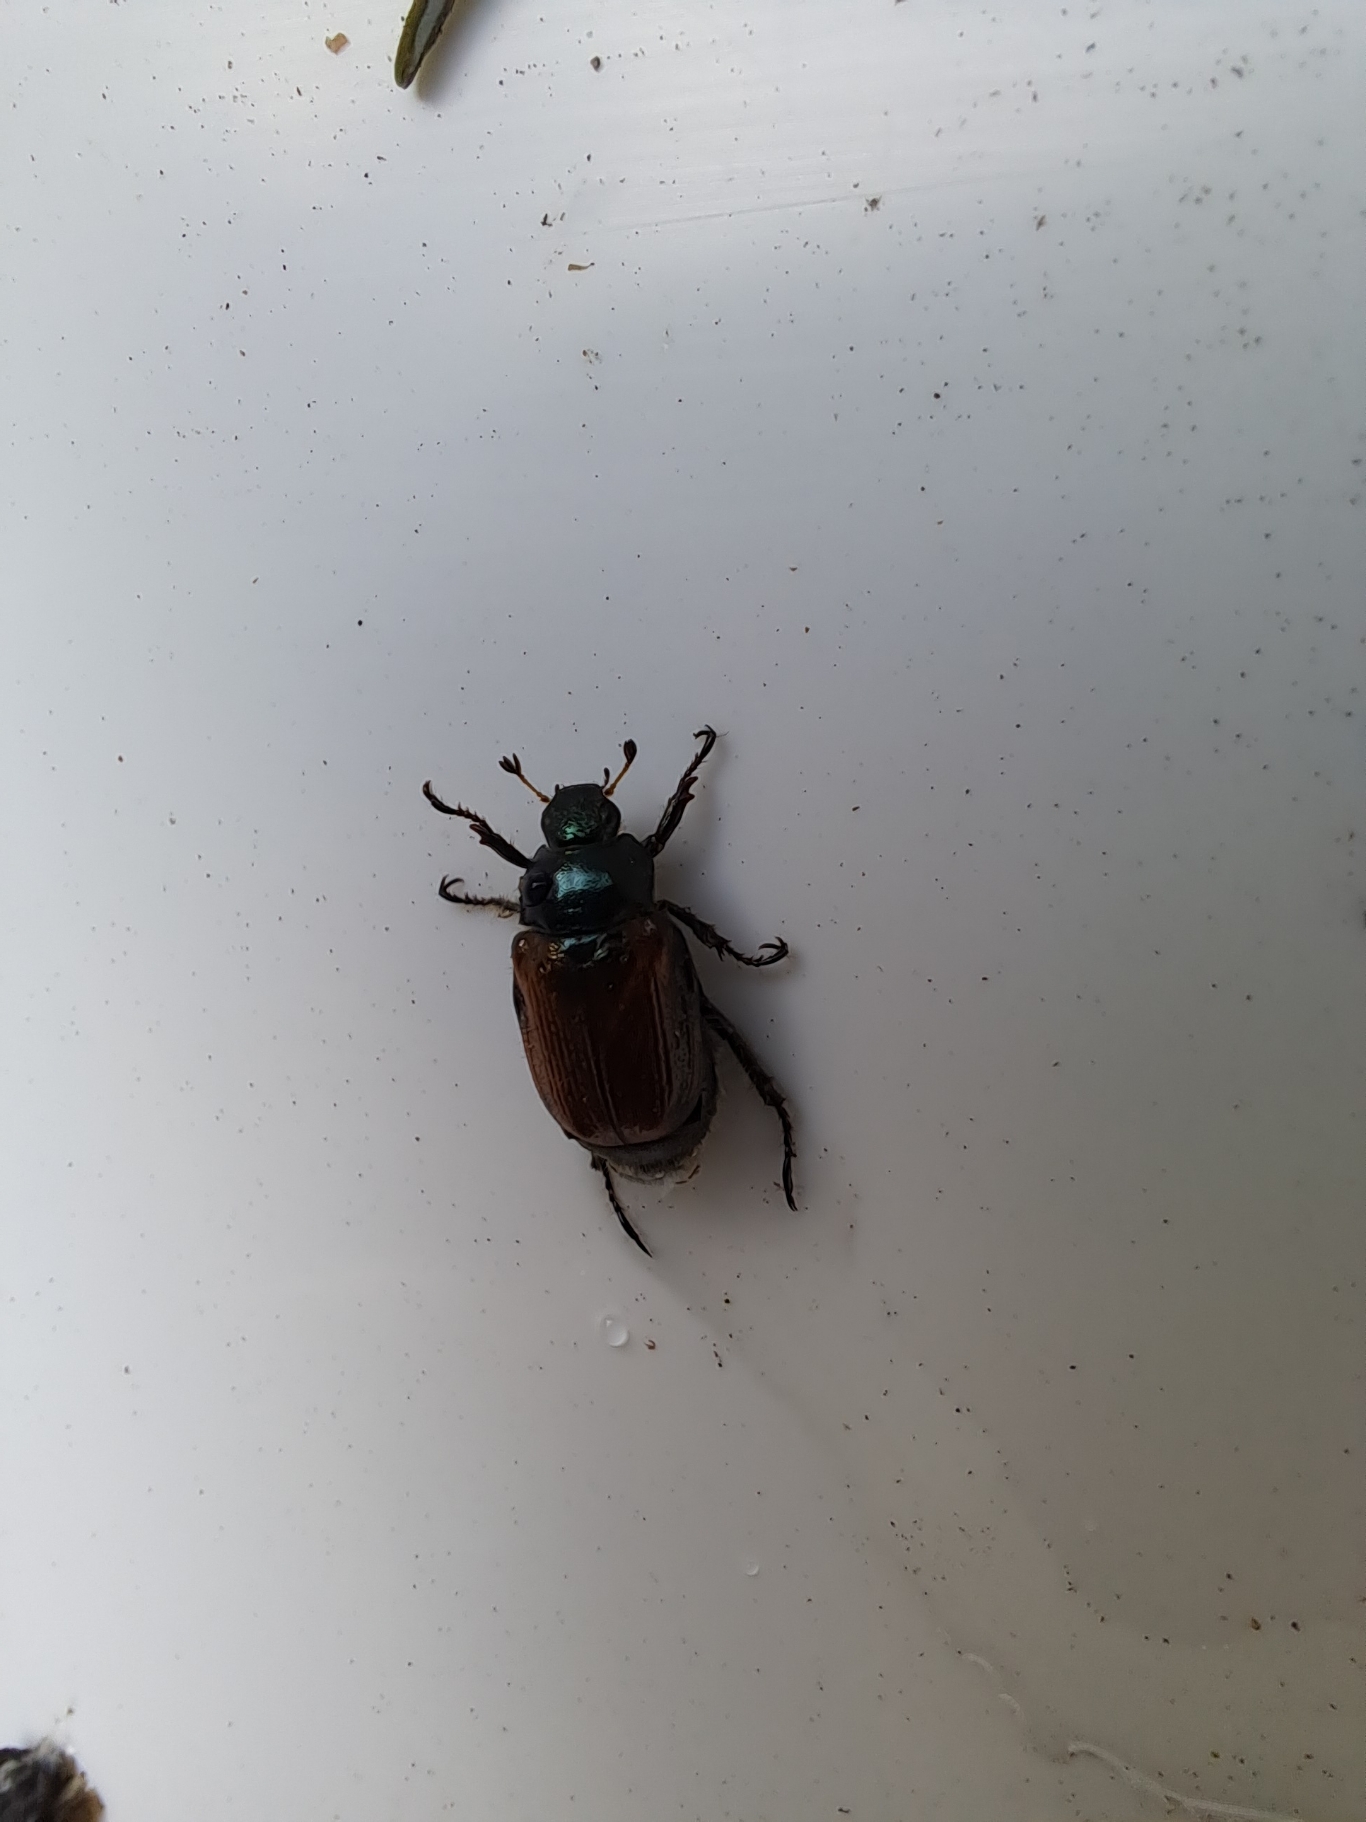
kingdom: Animalia
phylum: Arthropoda
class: Insecta
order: Coleoptera
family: Scarabaeidae
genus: Phyllopertha
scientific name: Phyllopertha horticola
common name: Gåsebille
